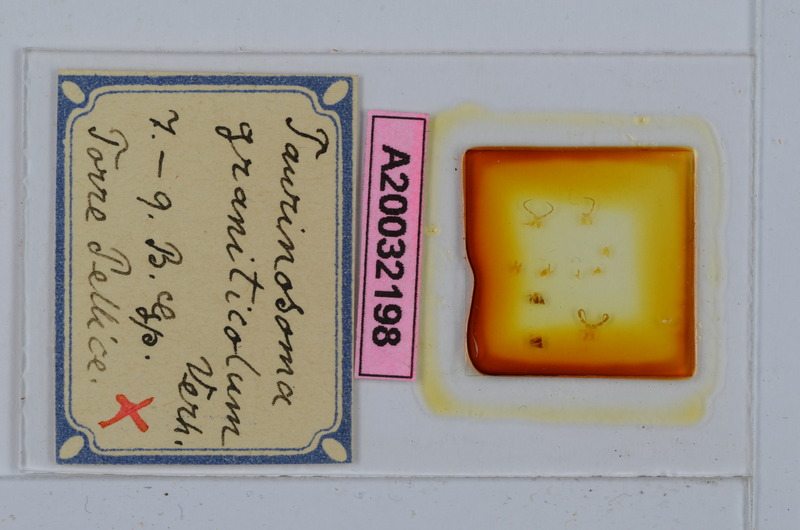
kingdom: Animalia
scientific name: Animalia
